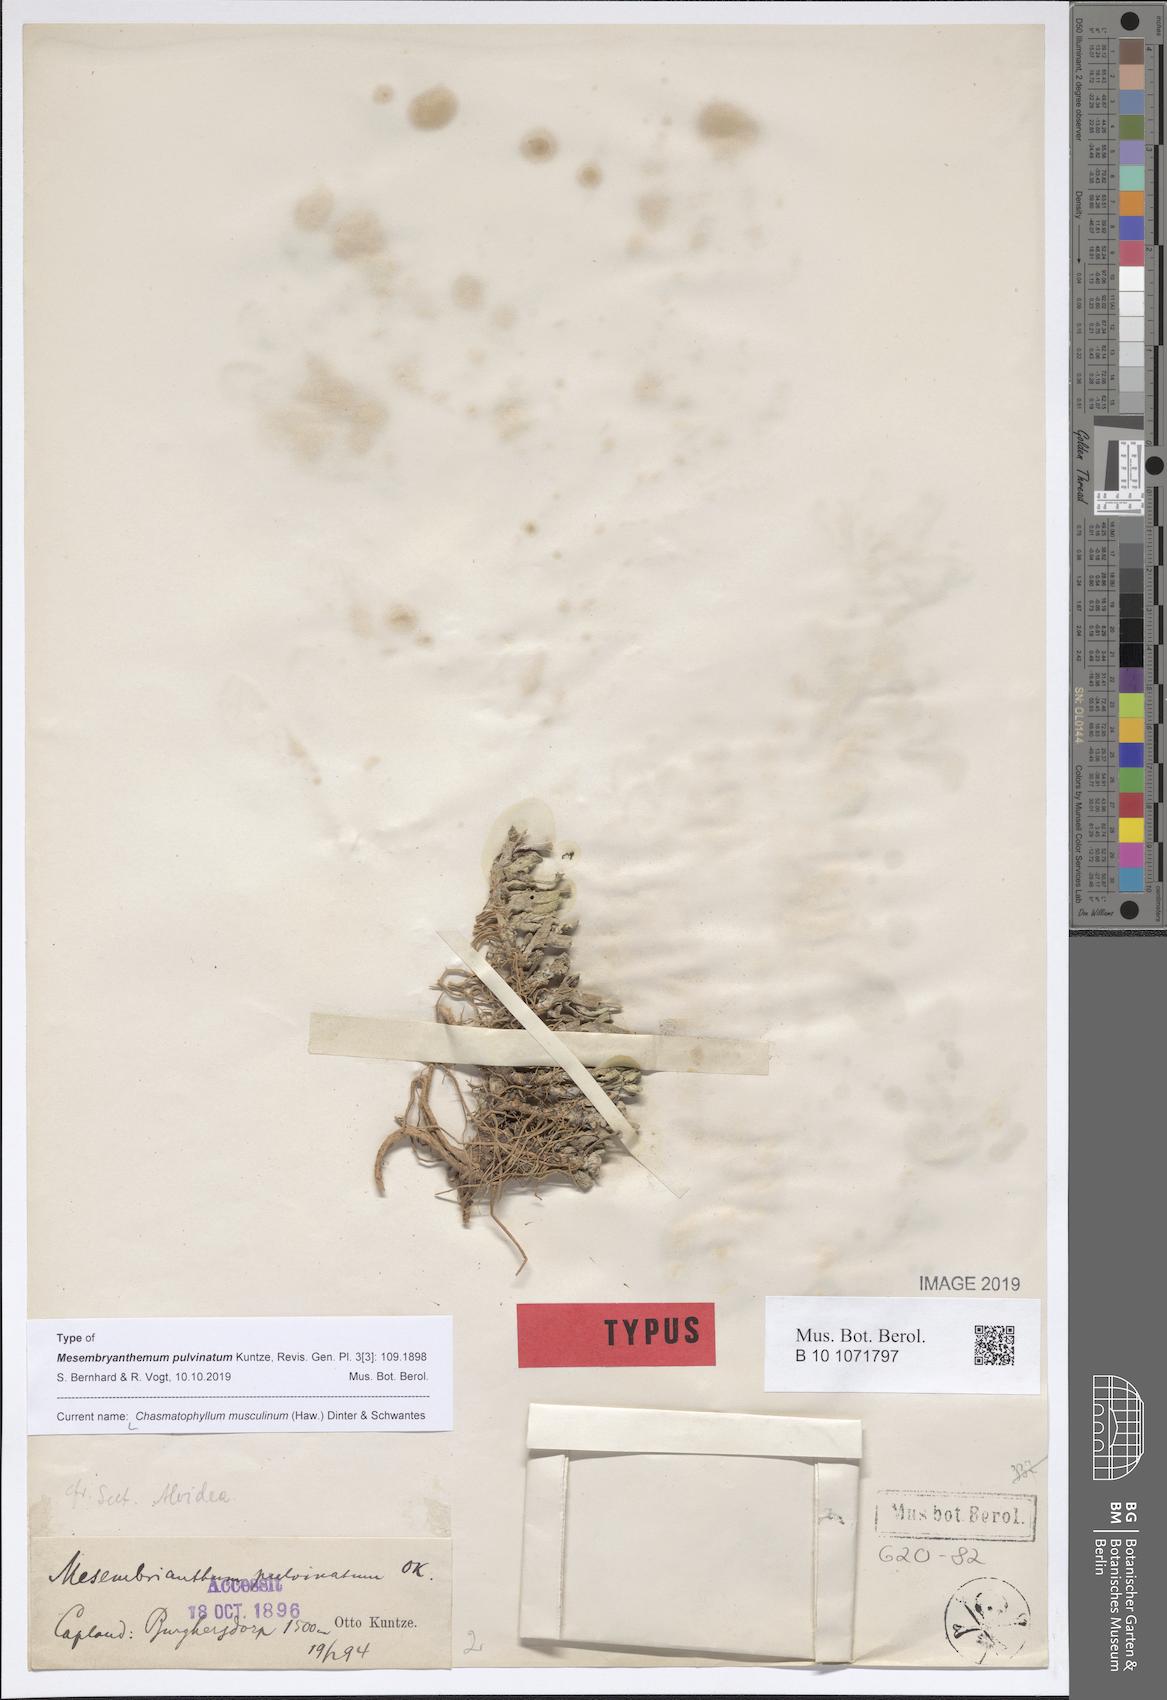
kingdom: Plantae
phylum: Tracheophyta
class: Magnoliopsida
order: Caryophyllales
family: Aizoaceae
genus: Dracophilus
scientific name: Dracophilus Chasmatophyllum musculinum
